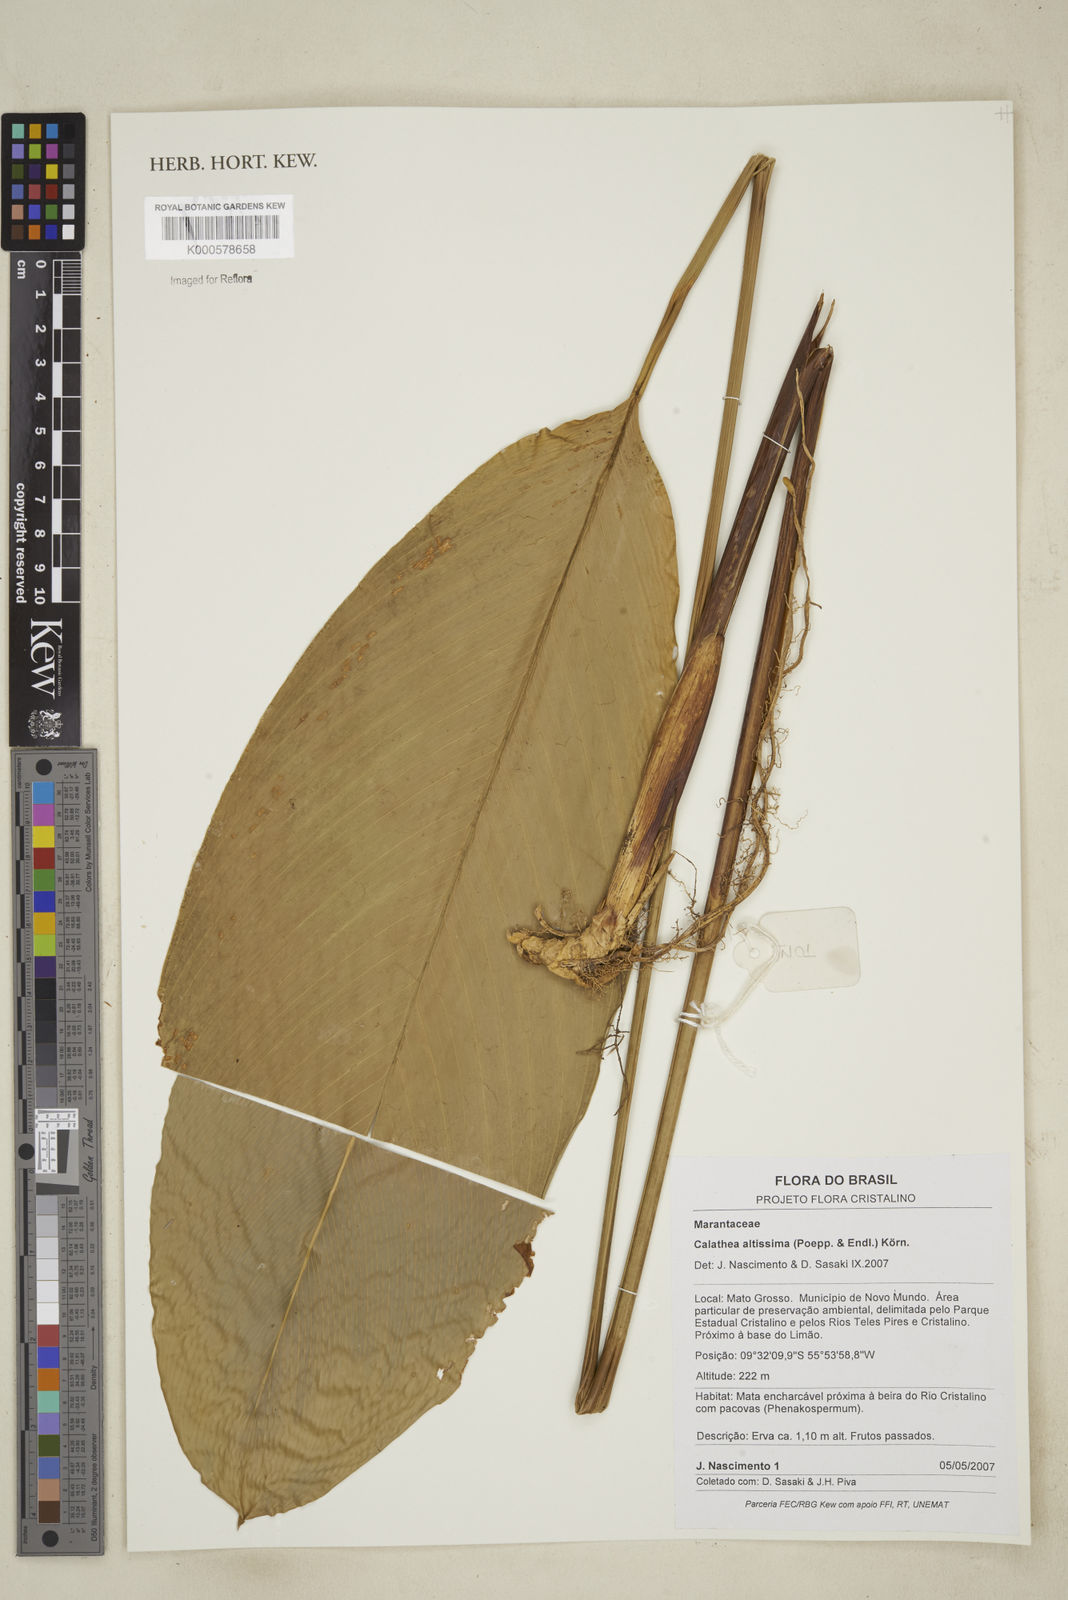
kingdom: Plantae
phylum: Tracheophyta
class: Liliopsida
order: Zingiberales
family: Marantaceae
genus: Calathea
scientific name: Calathea
